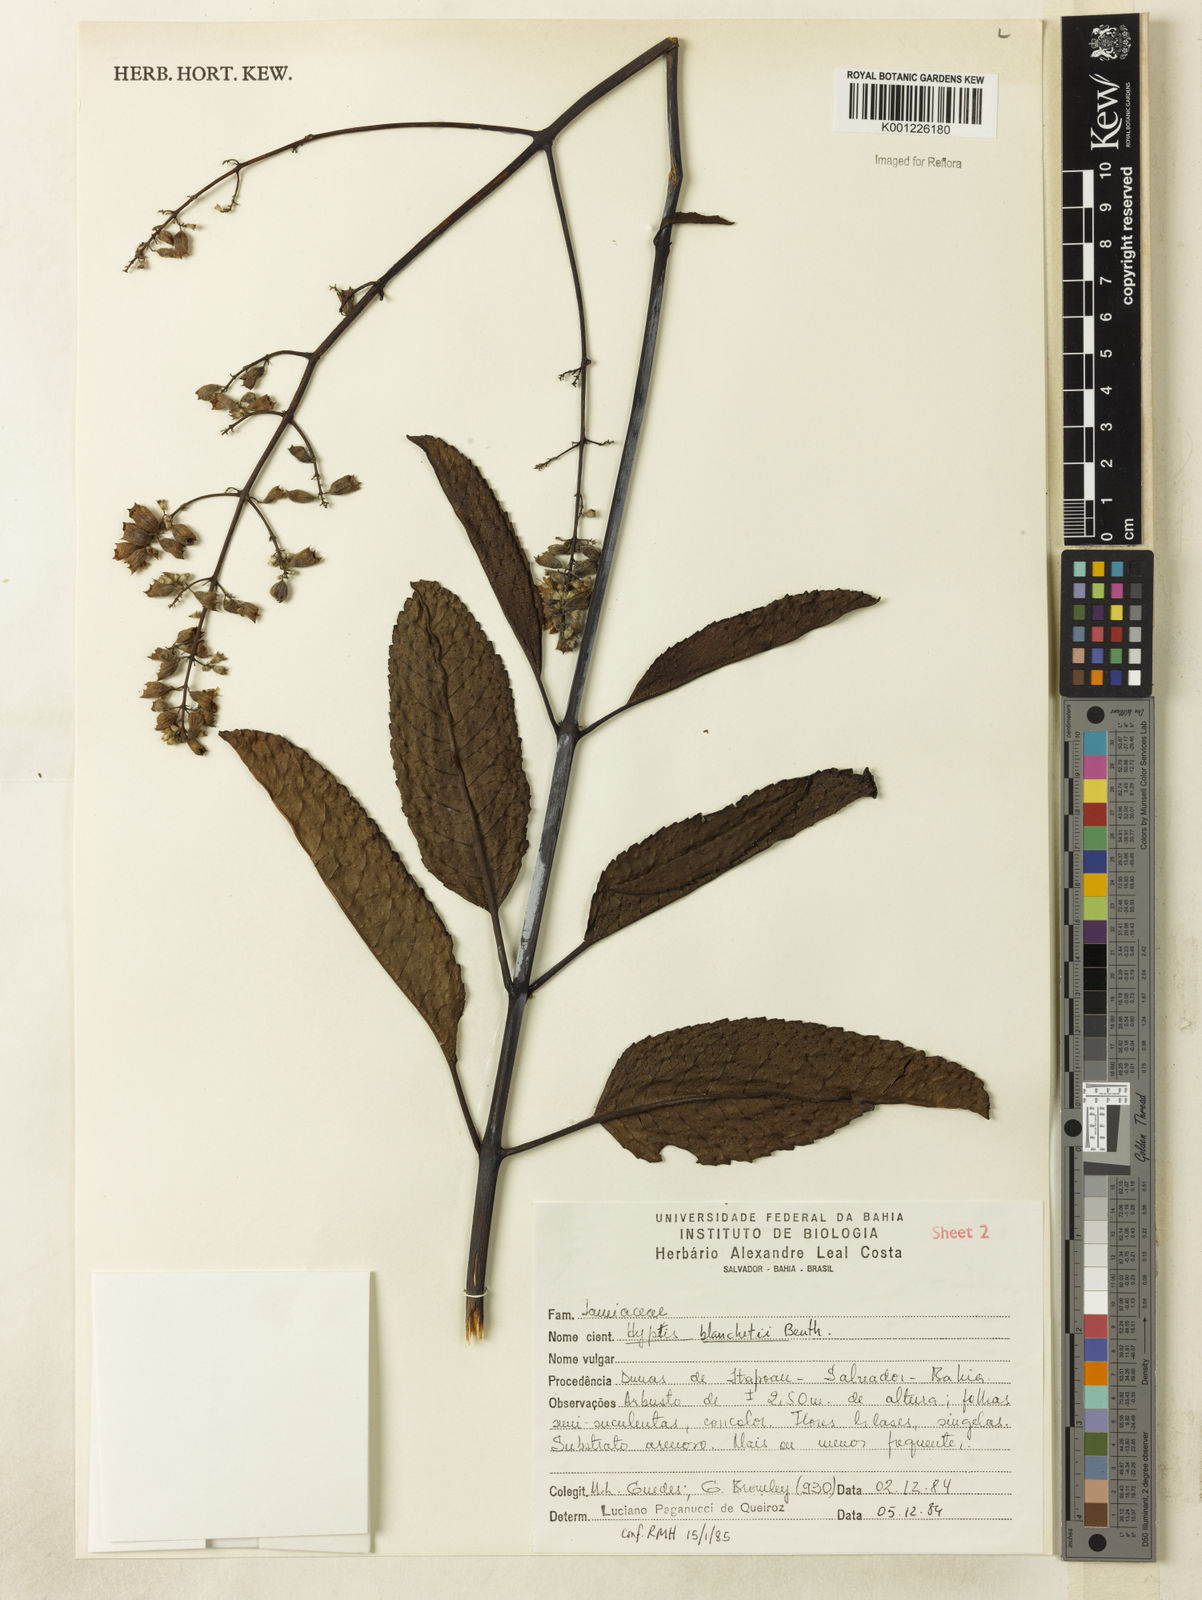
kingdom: Plantae
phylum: Tracheophyta
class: Magnoliopsida
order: Lamiales
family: Lamiaceae
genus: Eriope
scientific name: Eriope blanchetii
